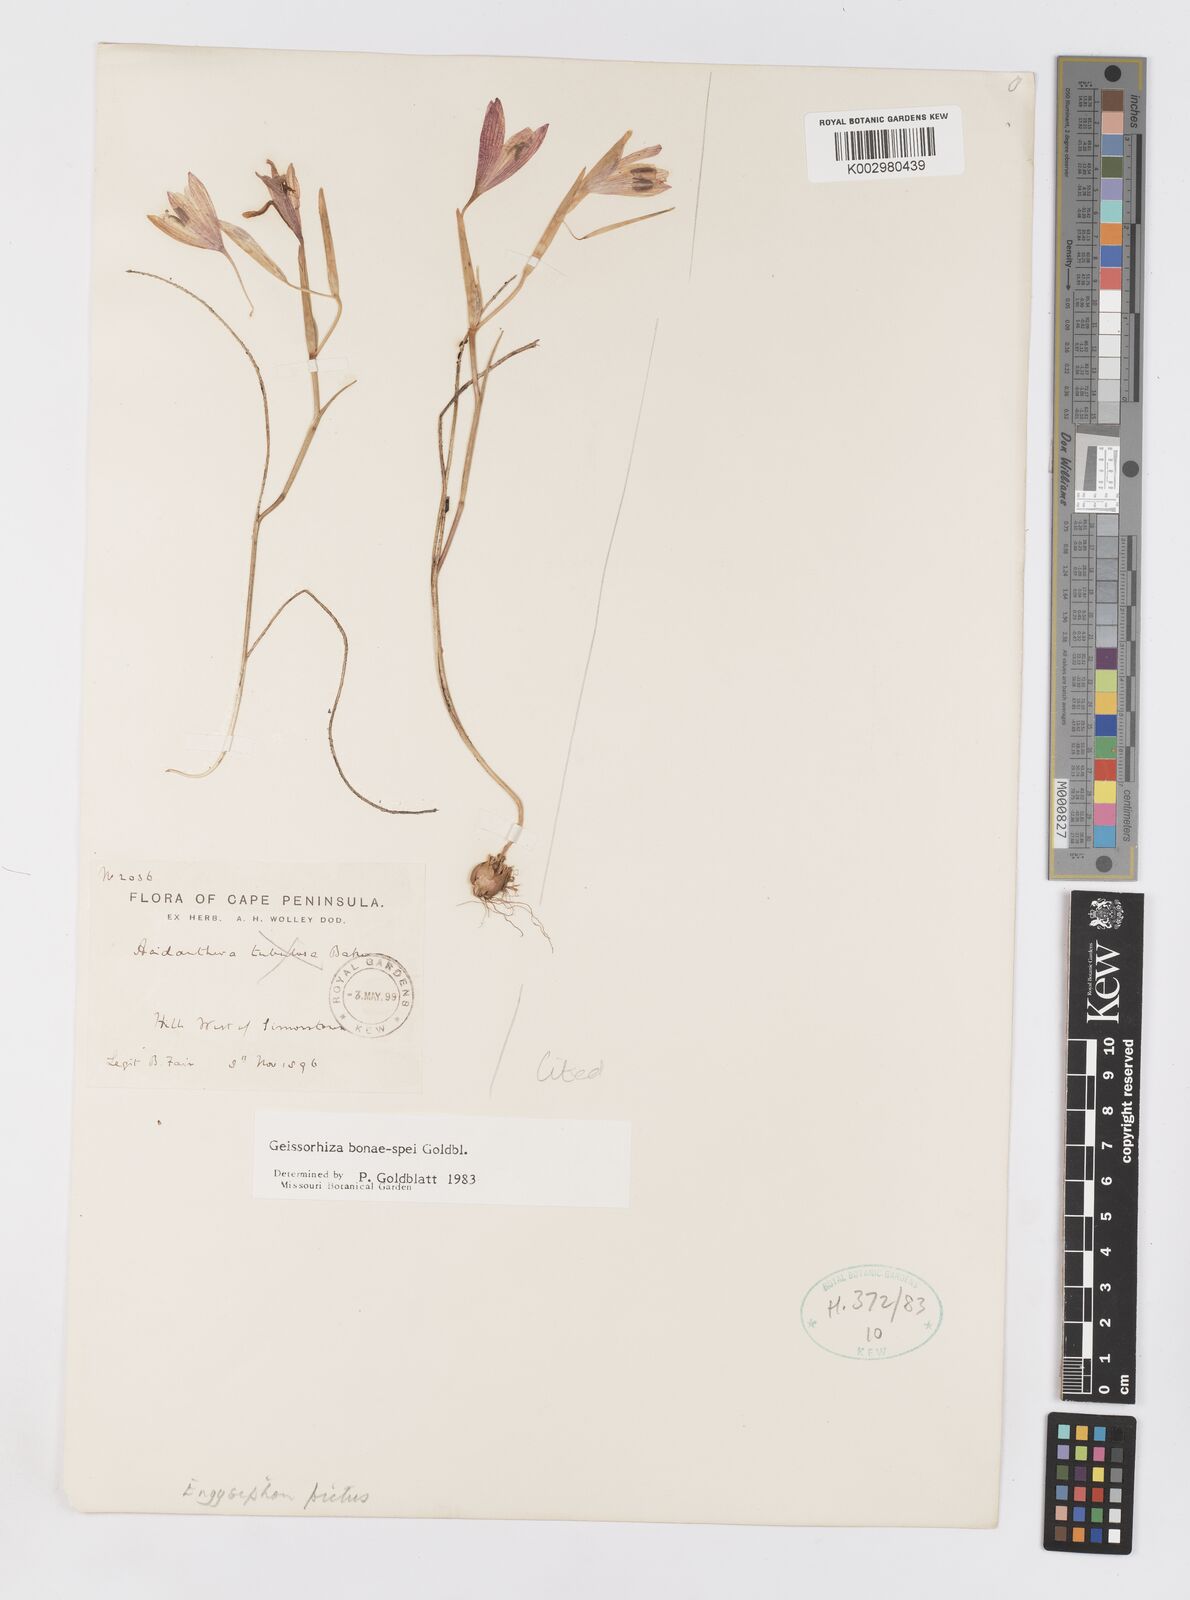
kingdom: Plantae
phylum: Tracheophyta
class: Liliopsida
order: Asparagales
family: Iridaceae
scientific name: Iridaceae
